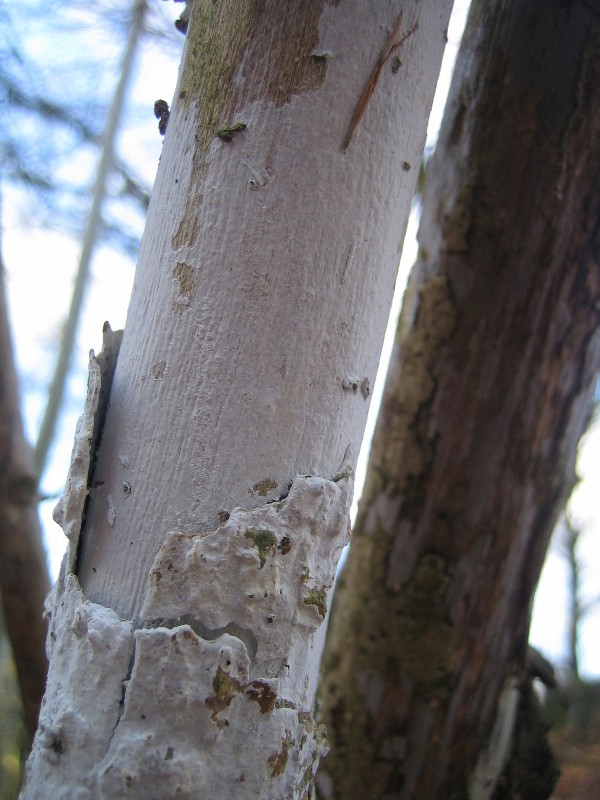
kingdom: Fungi
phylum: Basidiomycota
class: Agaricomycetes
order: Corticiales
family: Corticiaceae
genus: Lyomyces
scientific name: Lyomyces sambuci
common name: almindelig hyldehinde
